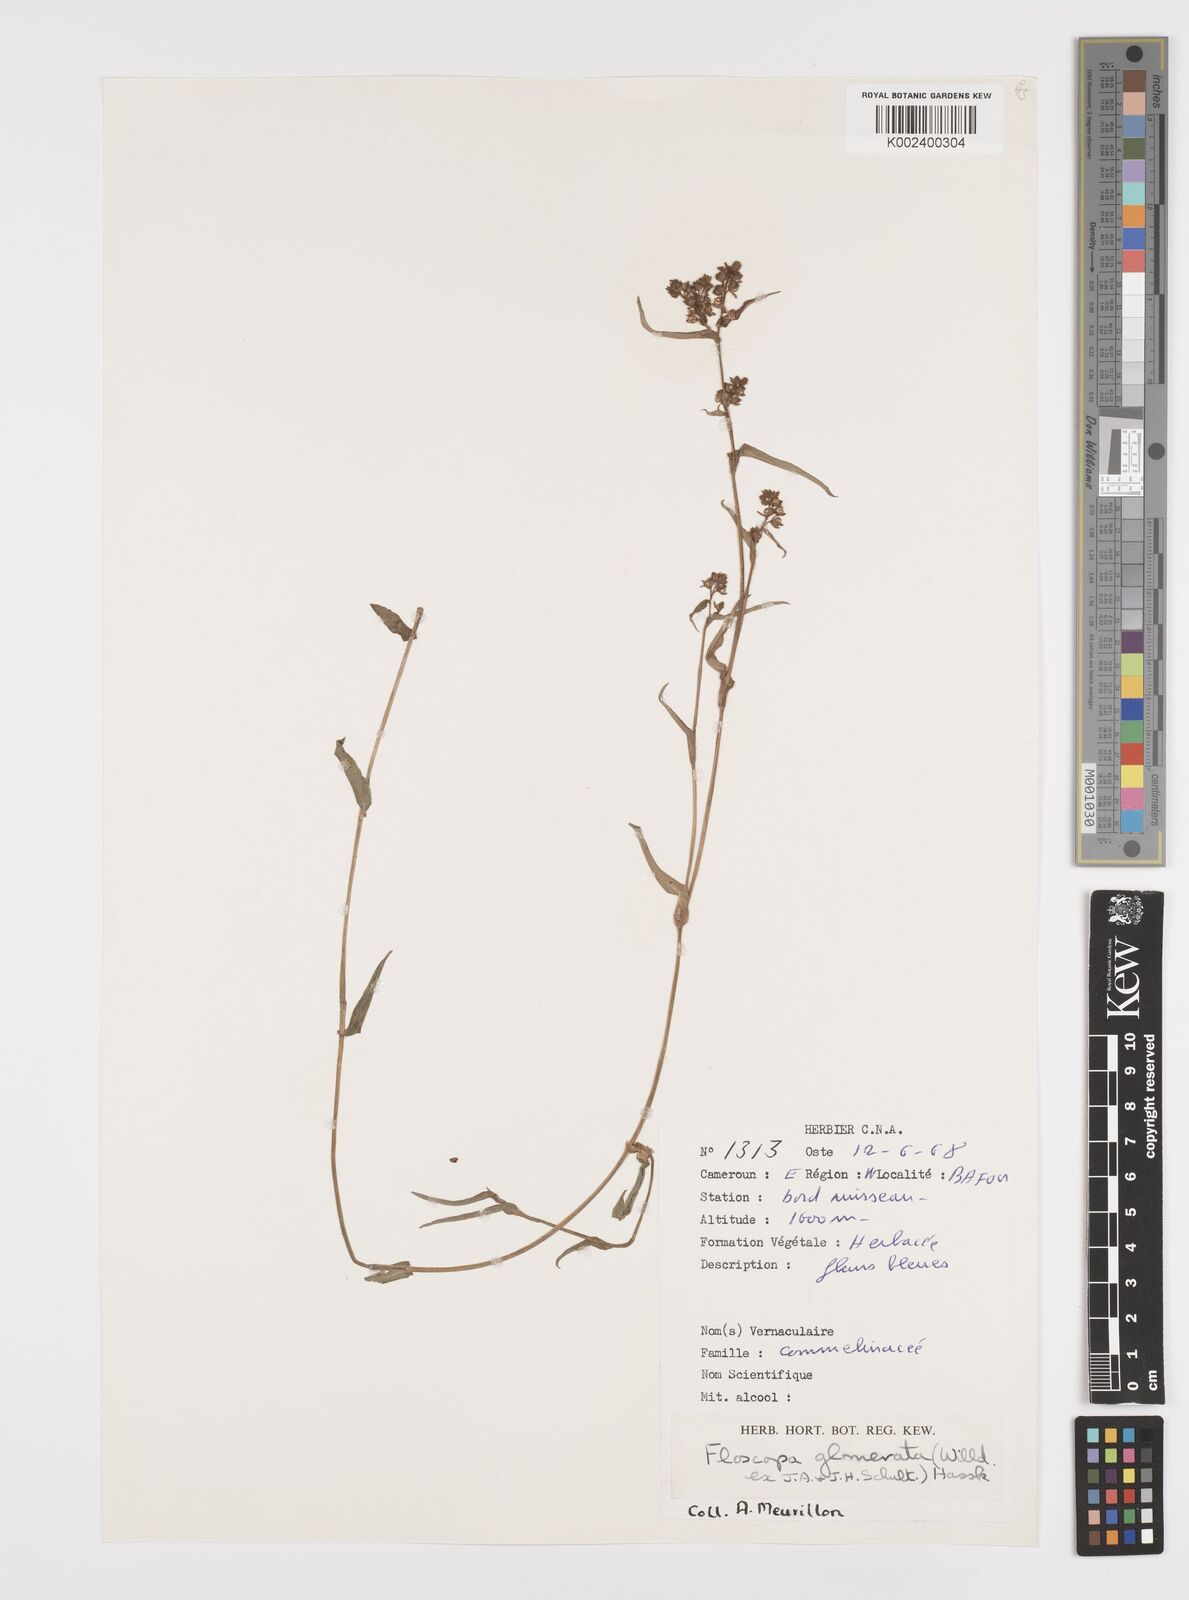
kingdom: Plantae
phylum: Tracheophyta
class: Liliopsida
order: Commelinales
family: Commelinaceae
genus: Floscopa
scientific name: Floscopa glomerata
